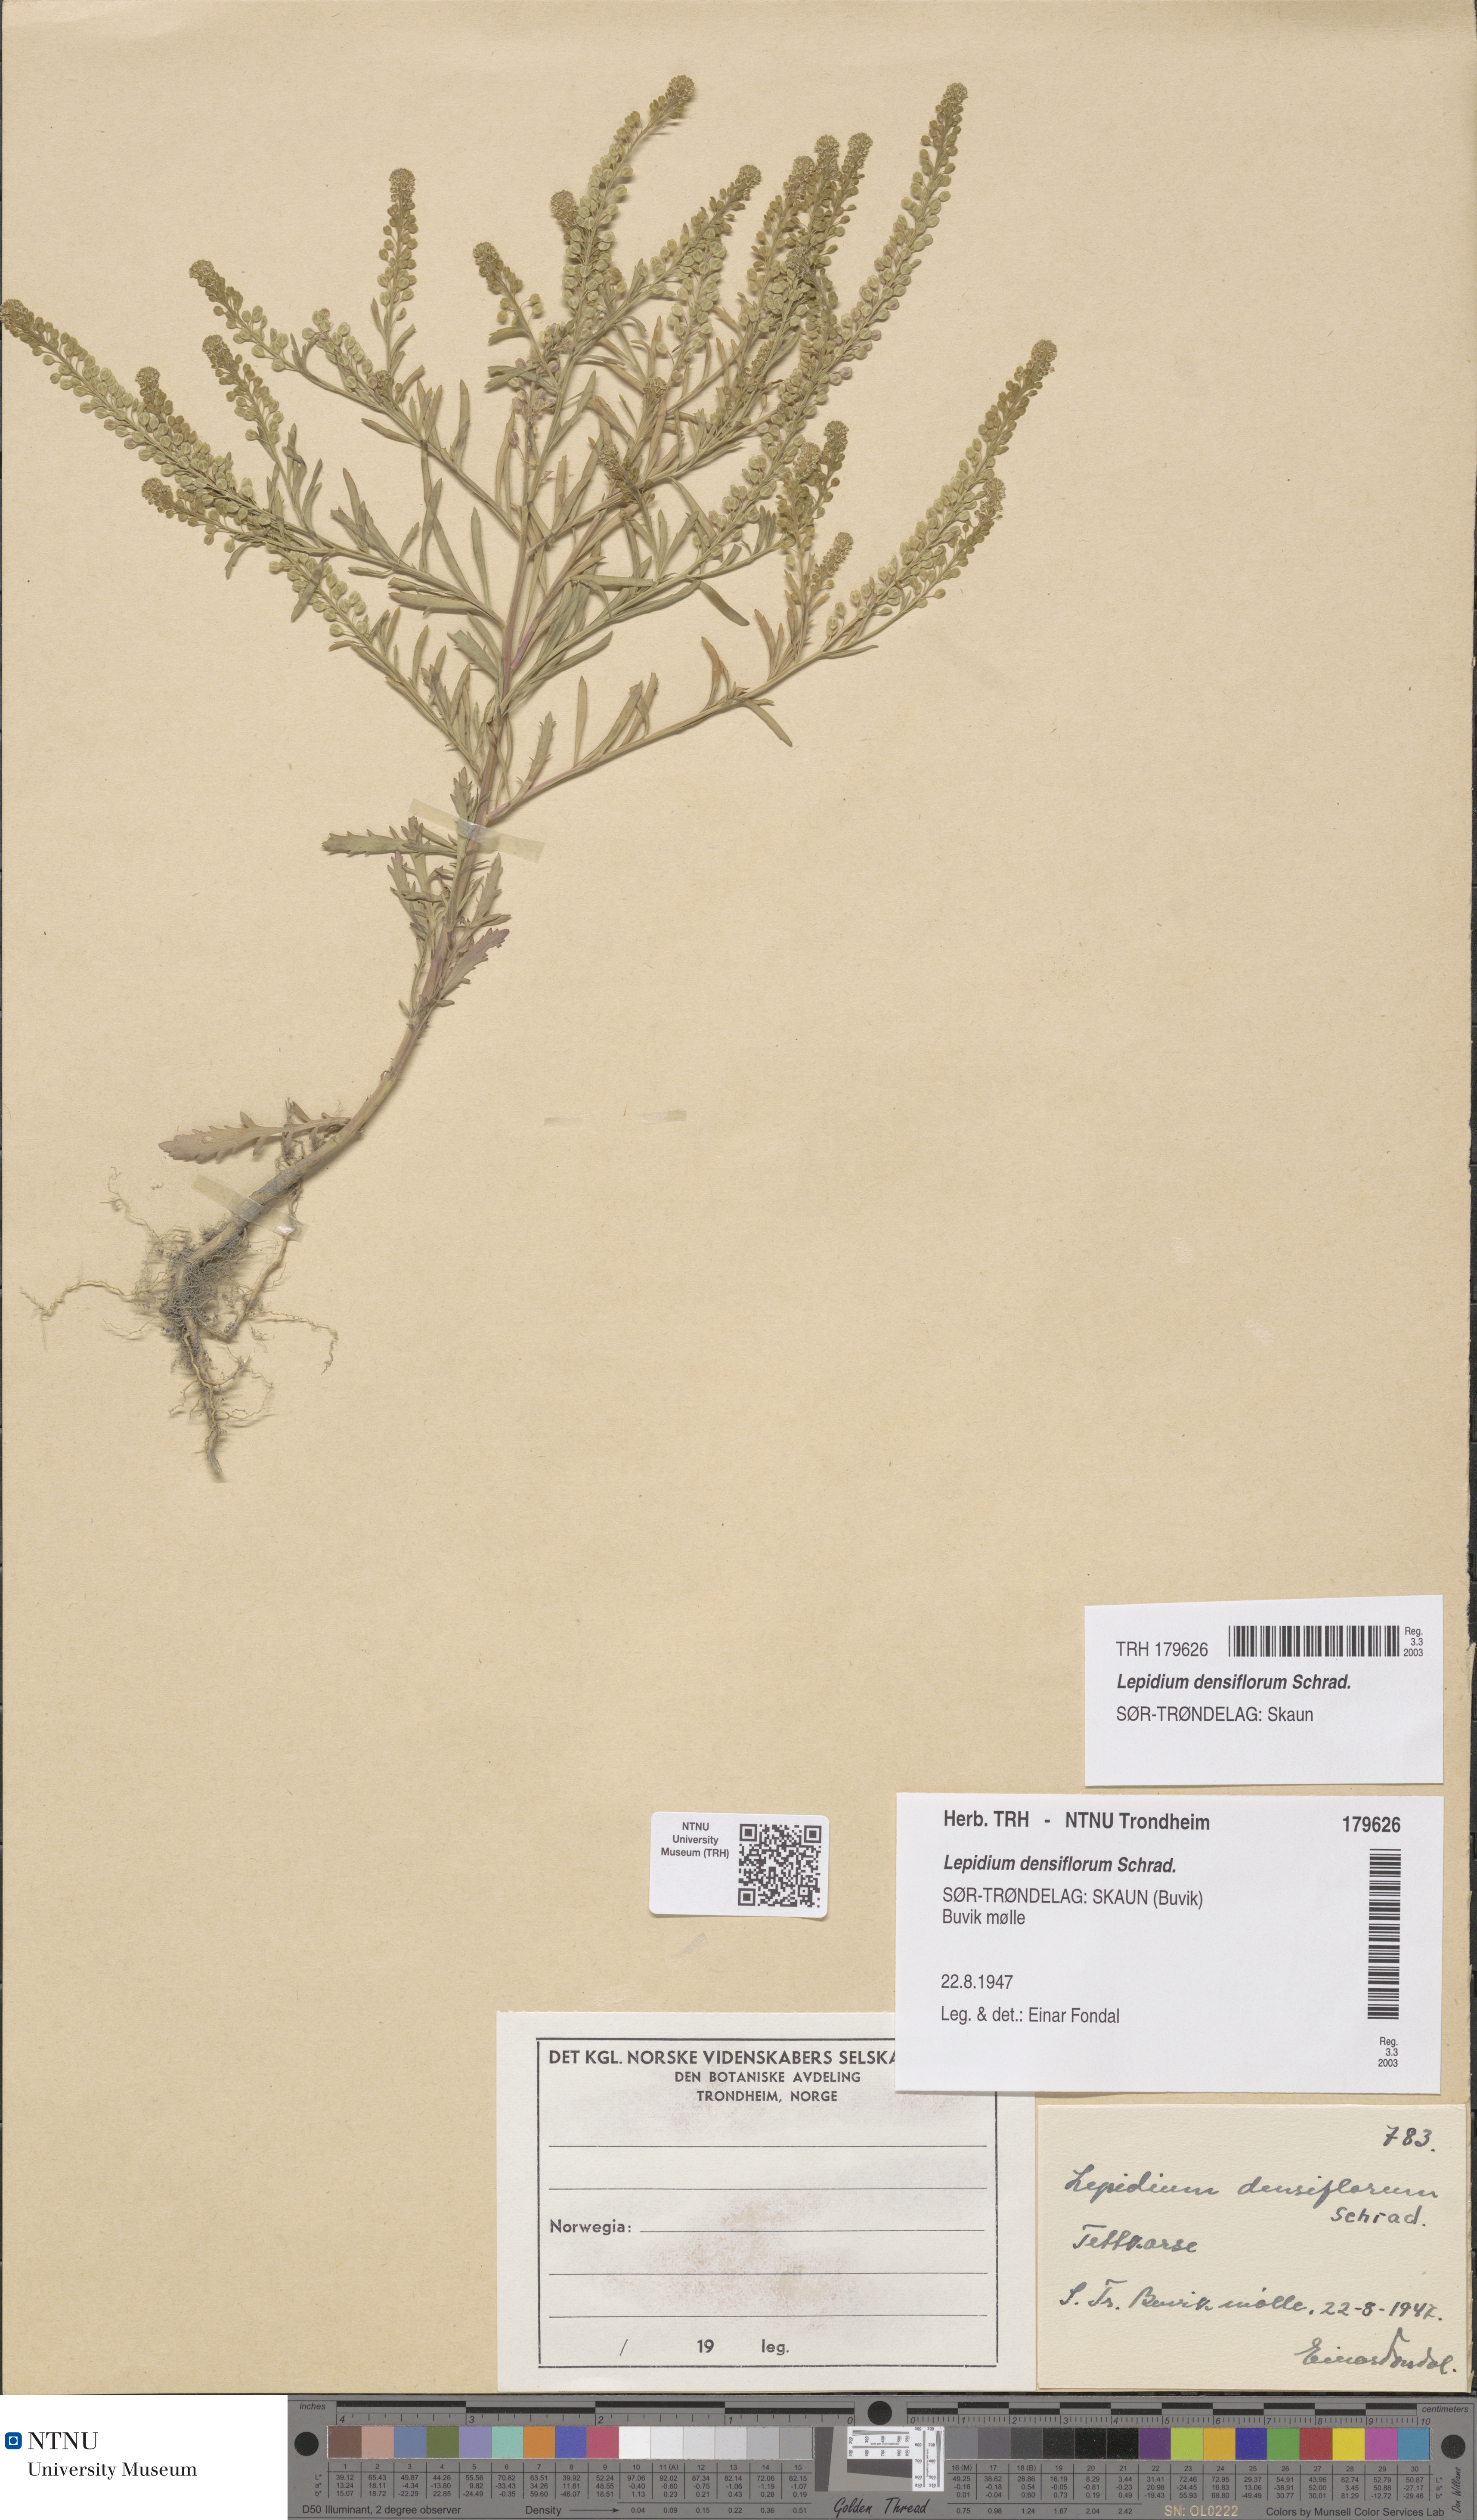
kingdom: Plantae
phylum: Tracheophyta
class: Magnoliopsida
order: Brassicales
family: Brassicaceae
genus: Lepidium
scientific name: Lepidium densiflorum
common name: Miner's pepperwort
